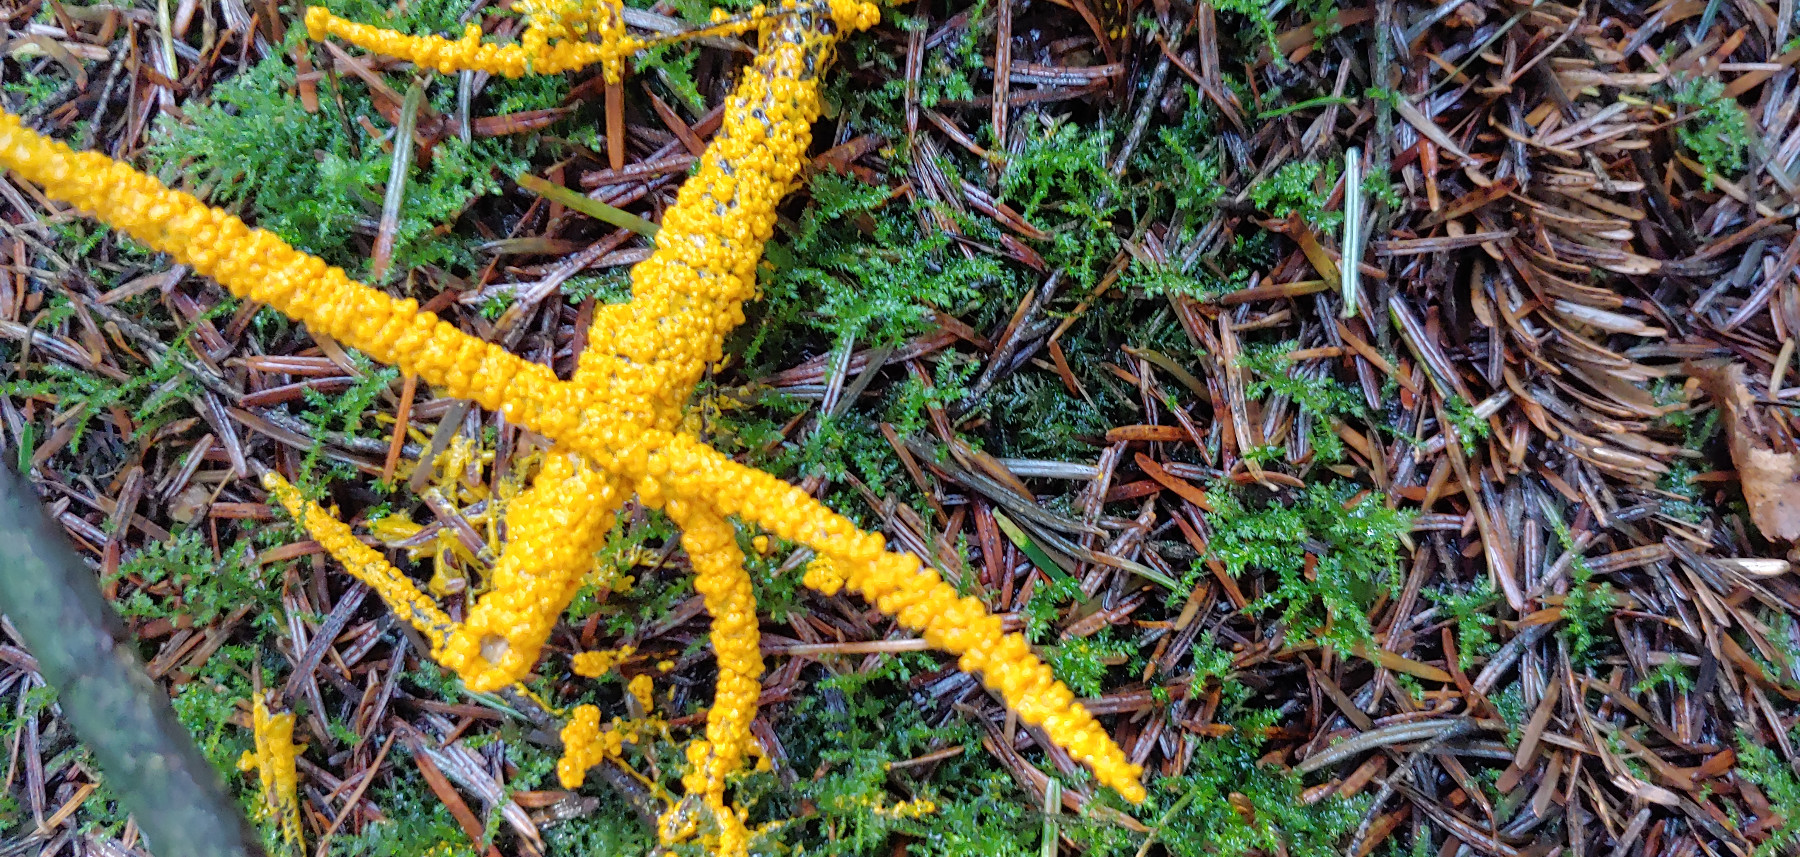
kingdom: Protozoa
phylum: Mycetozoa
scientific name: Mycetozoa
